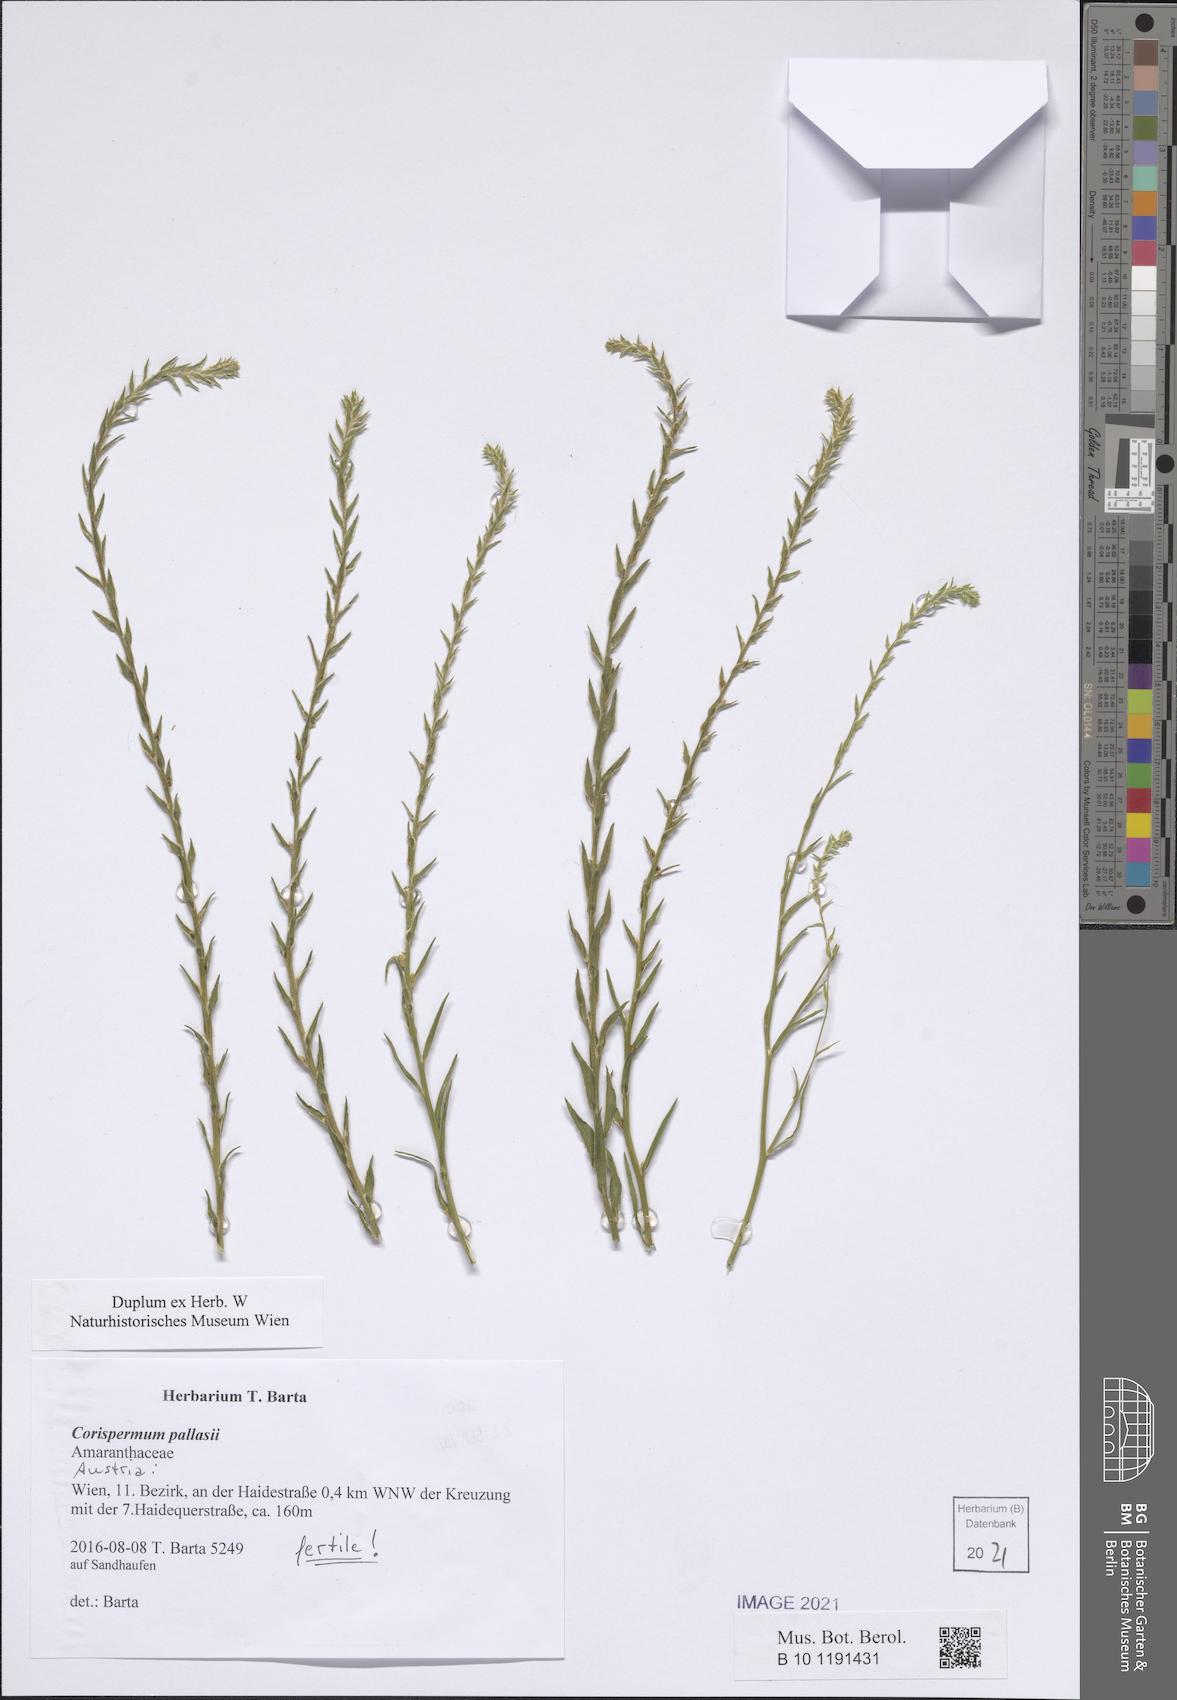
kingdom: Plantae
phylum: Tracheophyta
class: Magnoliopsida
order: Caryophyllales
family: Amaranthaceae
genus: Corispermum
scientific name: Corispermum pallasii
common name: Siberian bugseed
